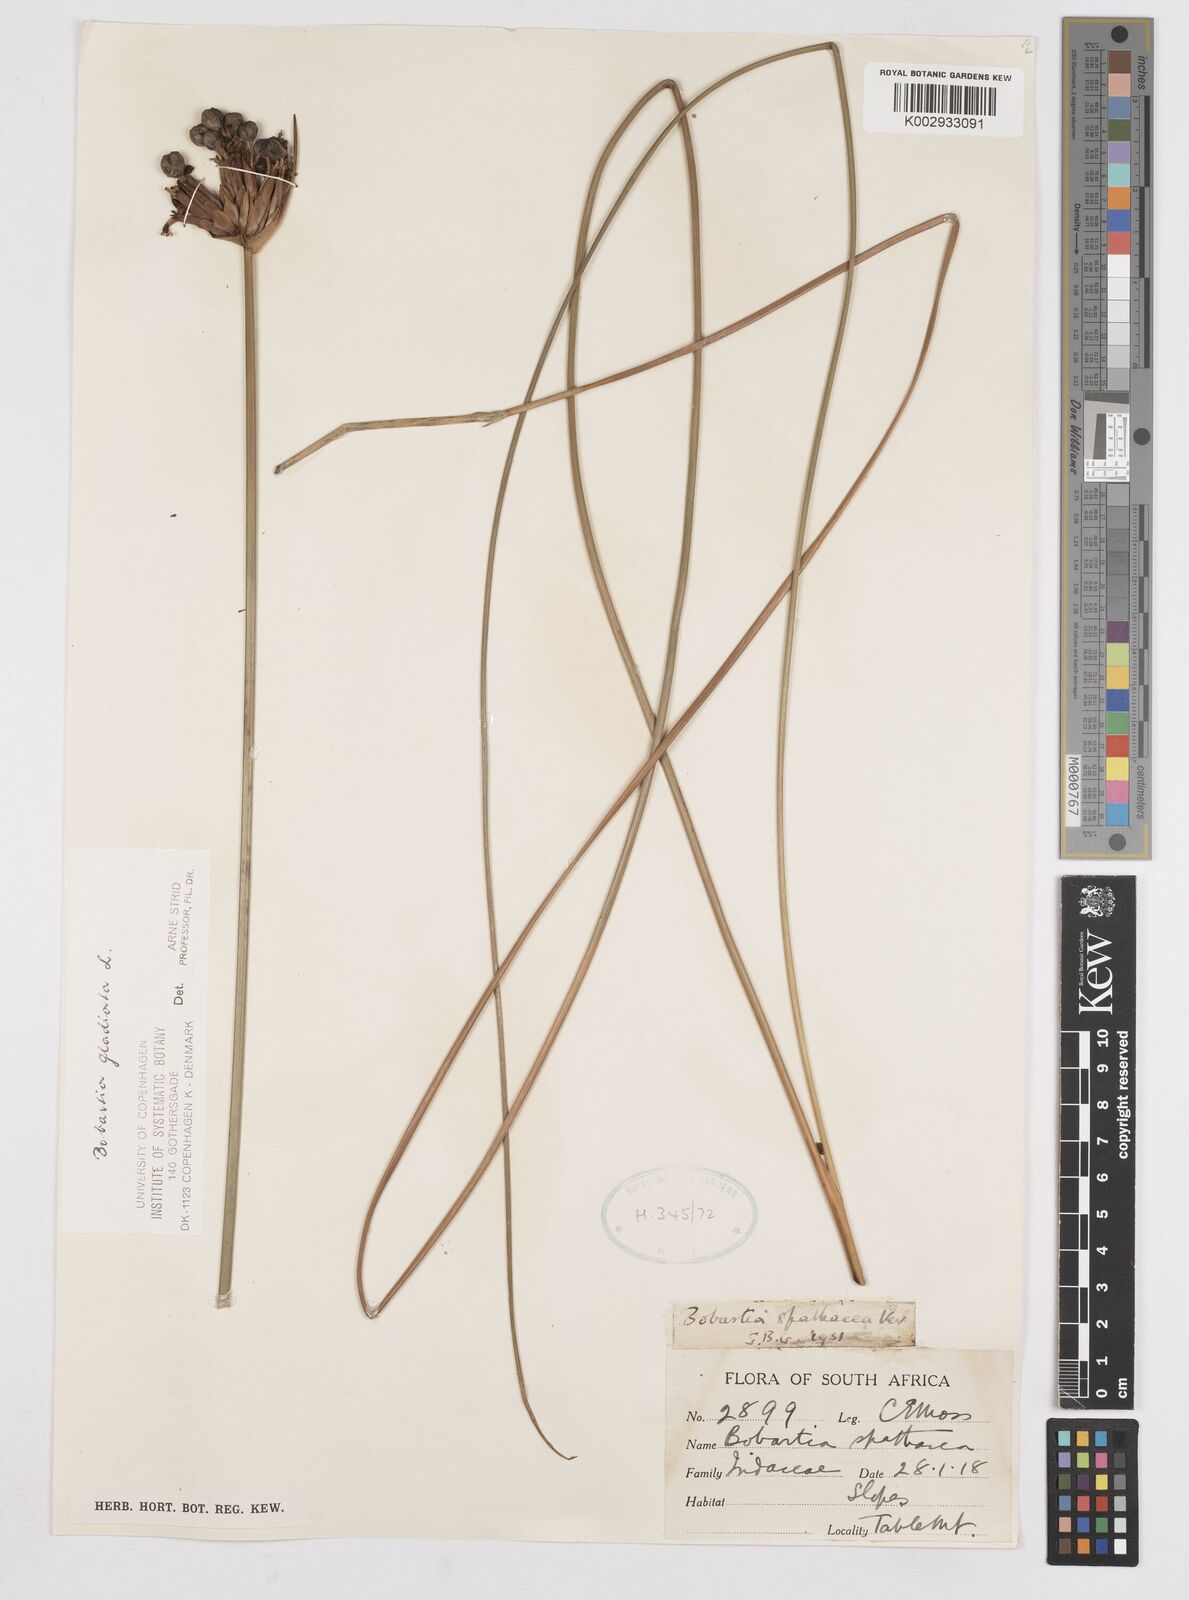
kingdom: Plantae
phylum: Tracheophyta
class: Liliopsida
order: Asparagales
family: Iridaceae
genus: Bobartia
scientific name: Bobartia gladiata
